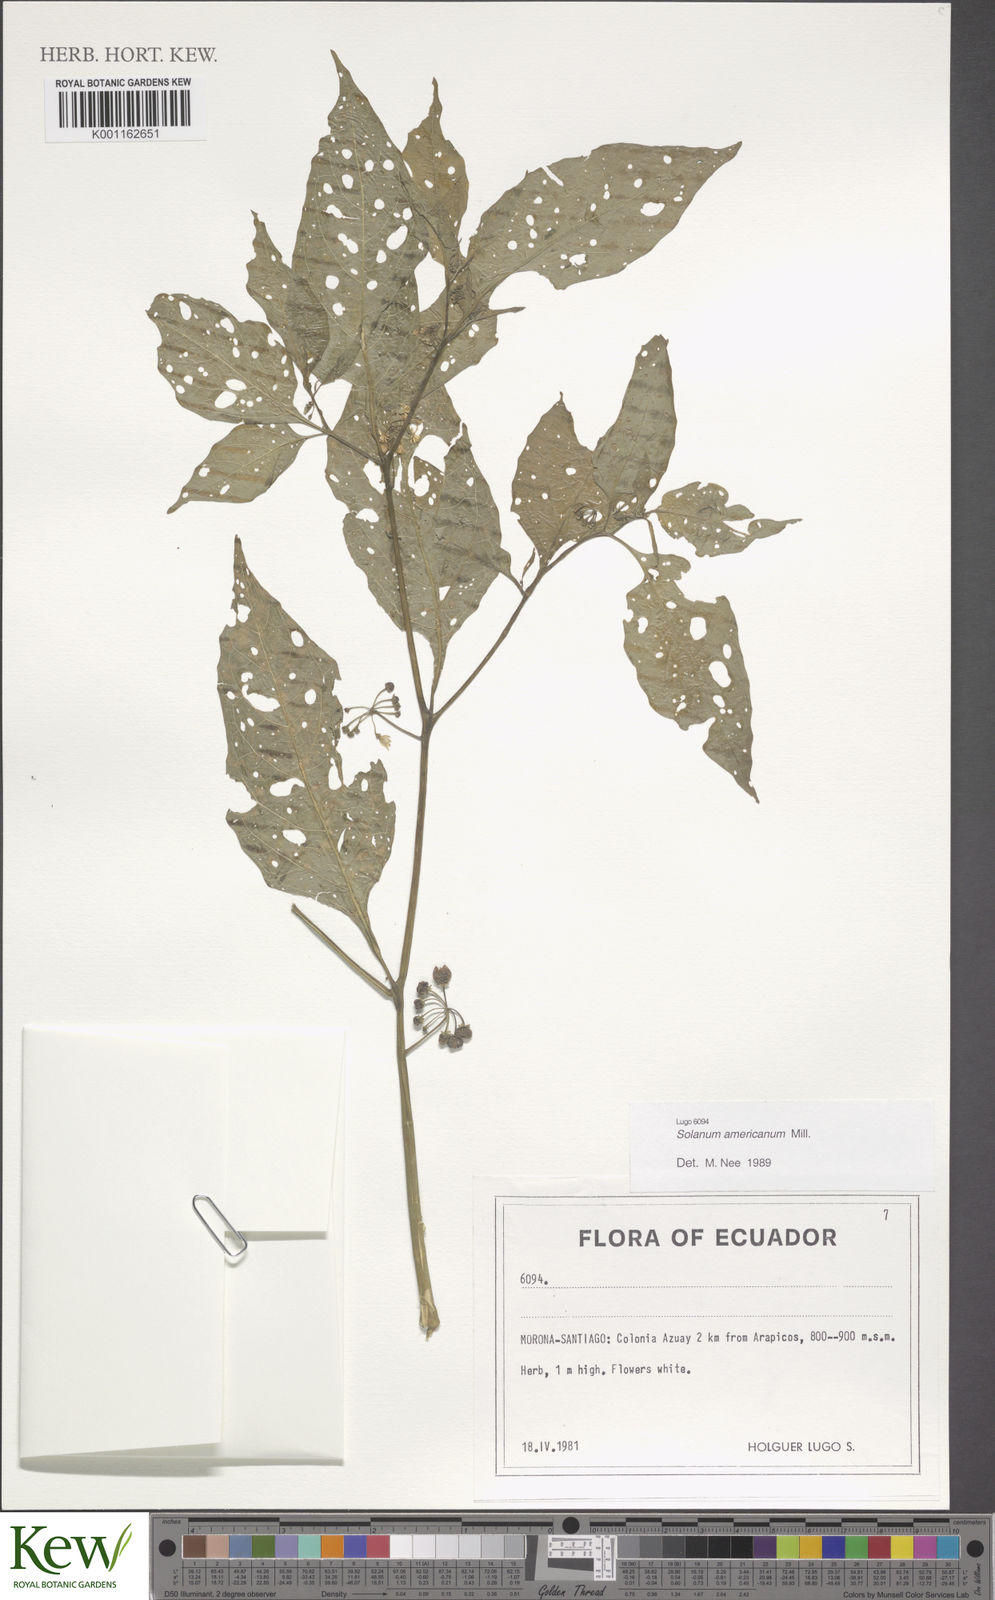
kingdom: Plantae
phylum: Tracheophyta
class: Magnoliopsida
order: Solanales
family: Solanaceae
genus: Solanum
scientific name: Solanum americanum
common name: American black nightshade
